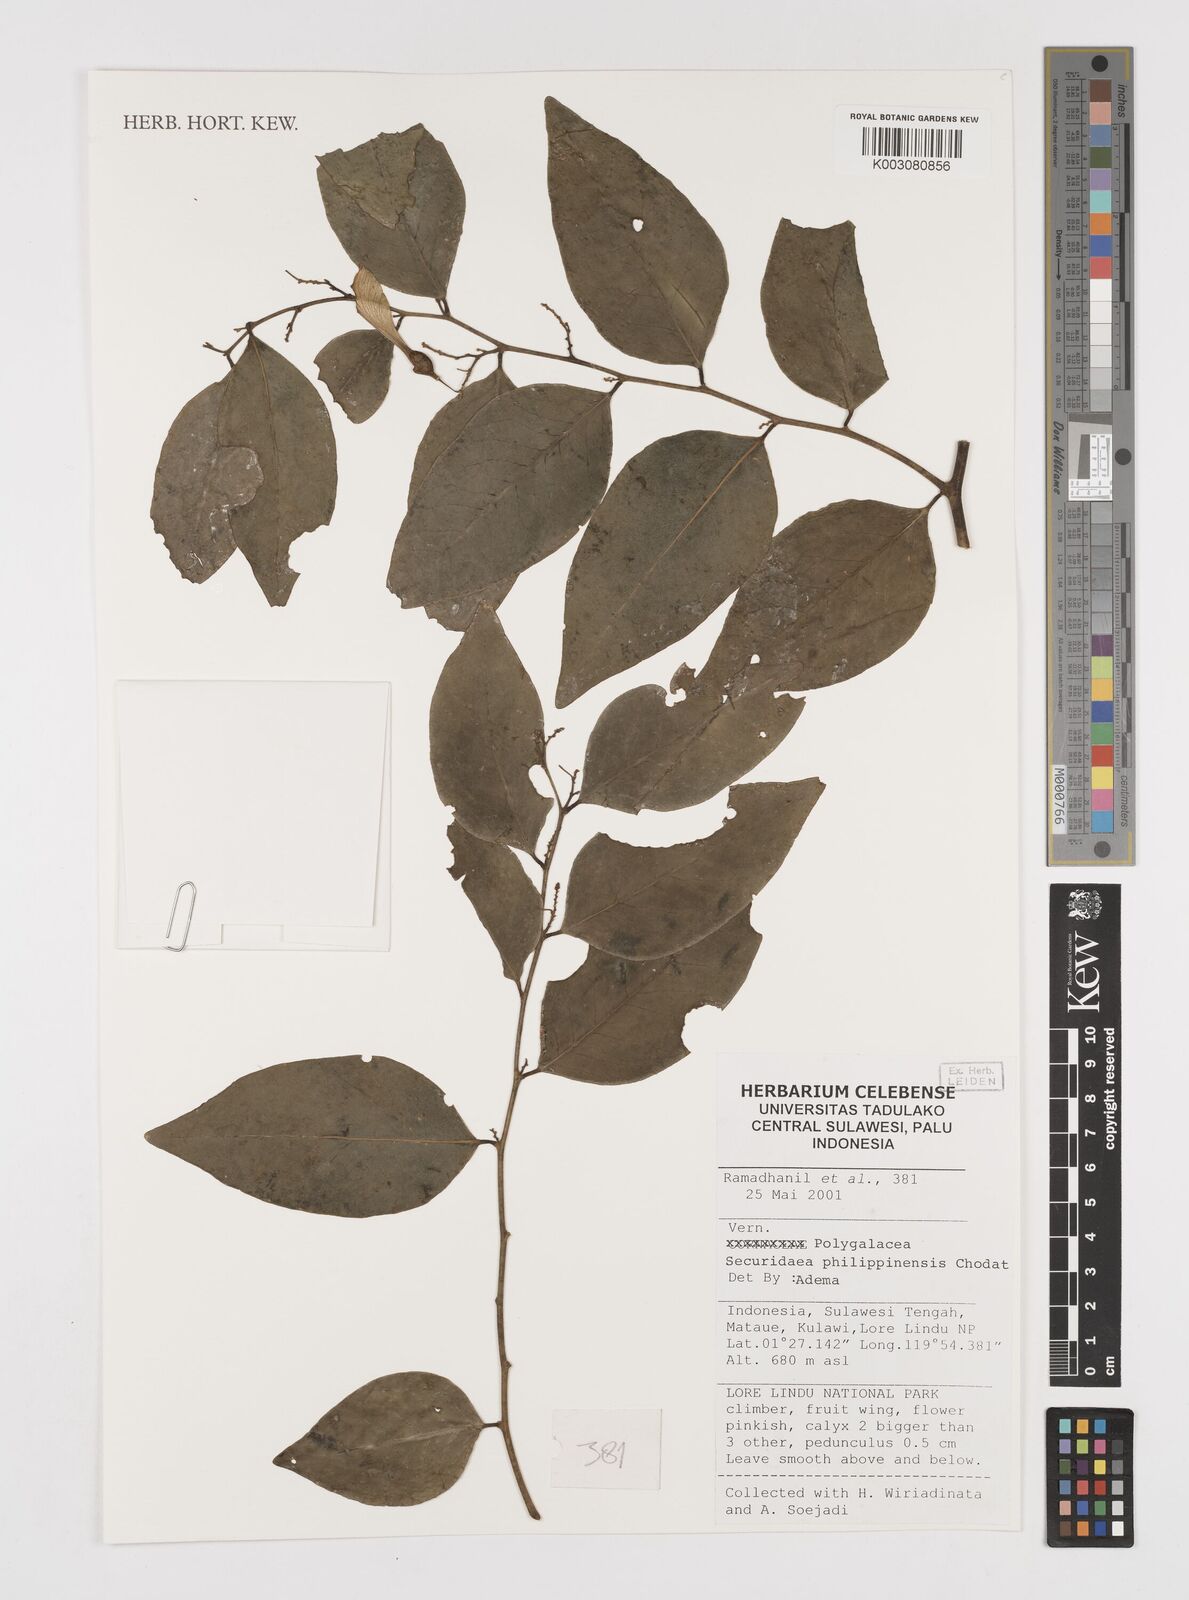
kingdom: Plantae
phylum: Tracheophyta
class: Magnoliopsida
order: Fabales
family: Polygalaceae
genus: Securidaca
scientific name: Securidaca philippinensis
